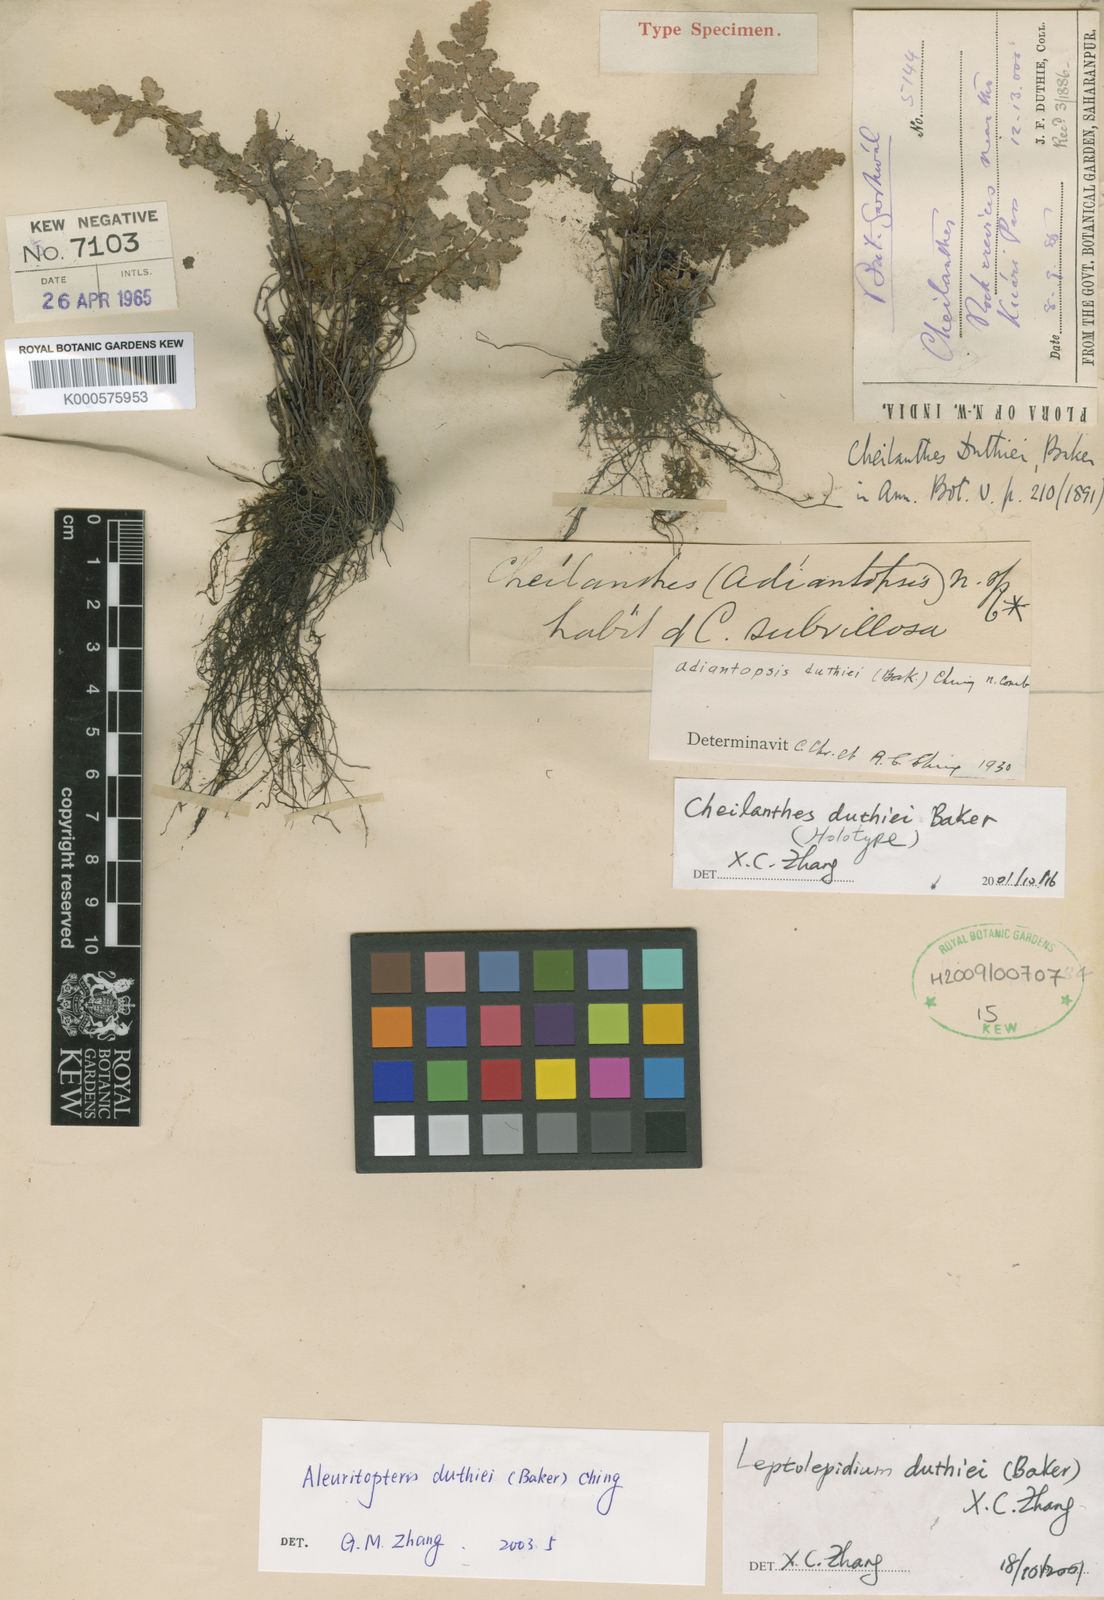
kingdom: Plantae
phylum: Tracheophyta
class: Polypodiopsida
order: Polypodiales
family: Pteridaceae
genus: Aleuritopteris
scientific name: Aleuritopteris duthiei
